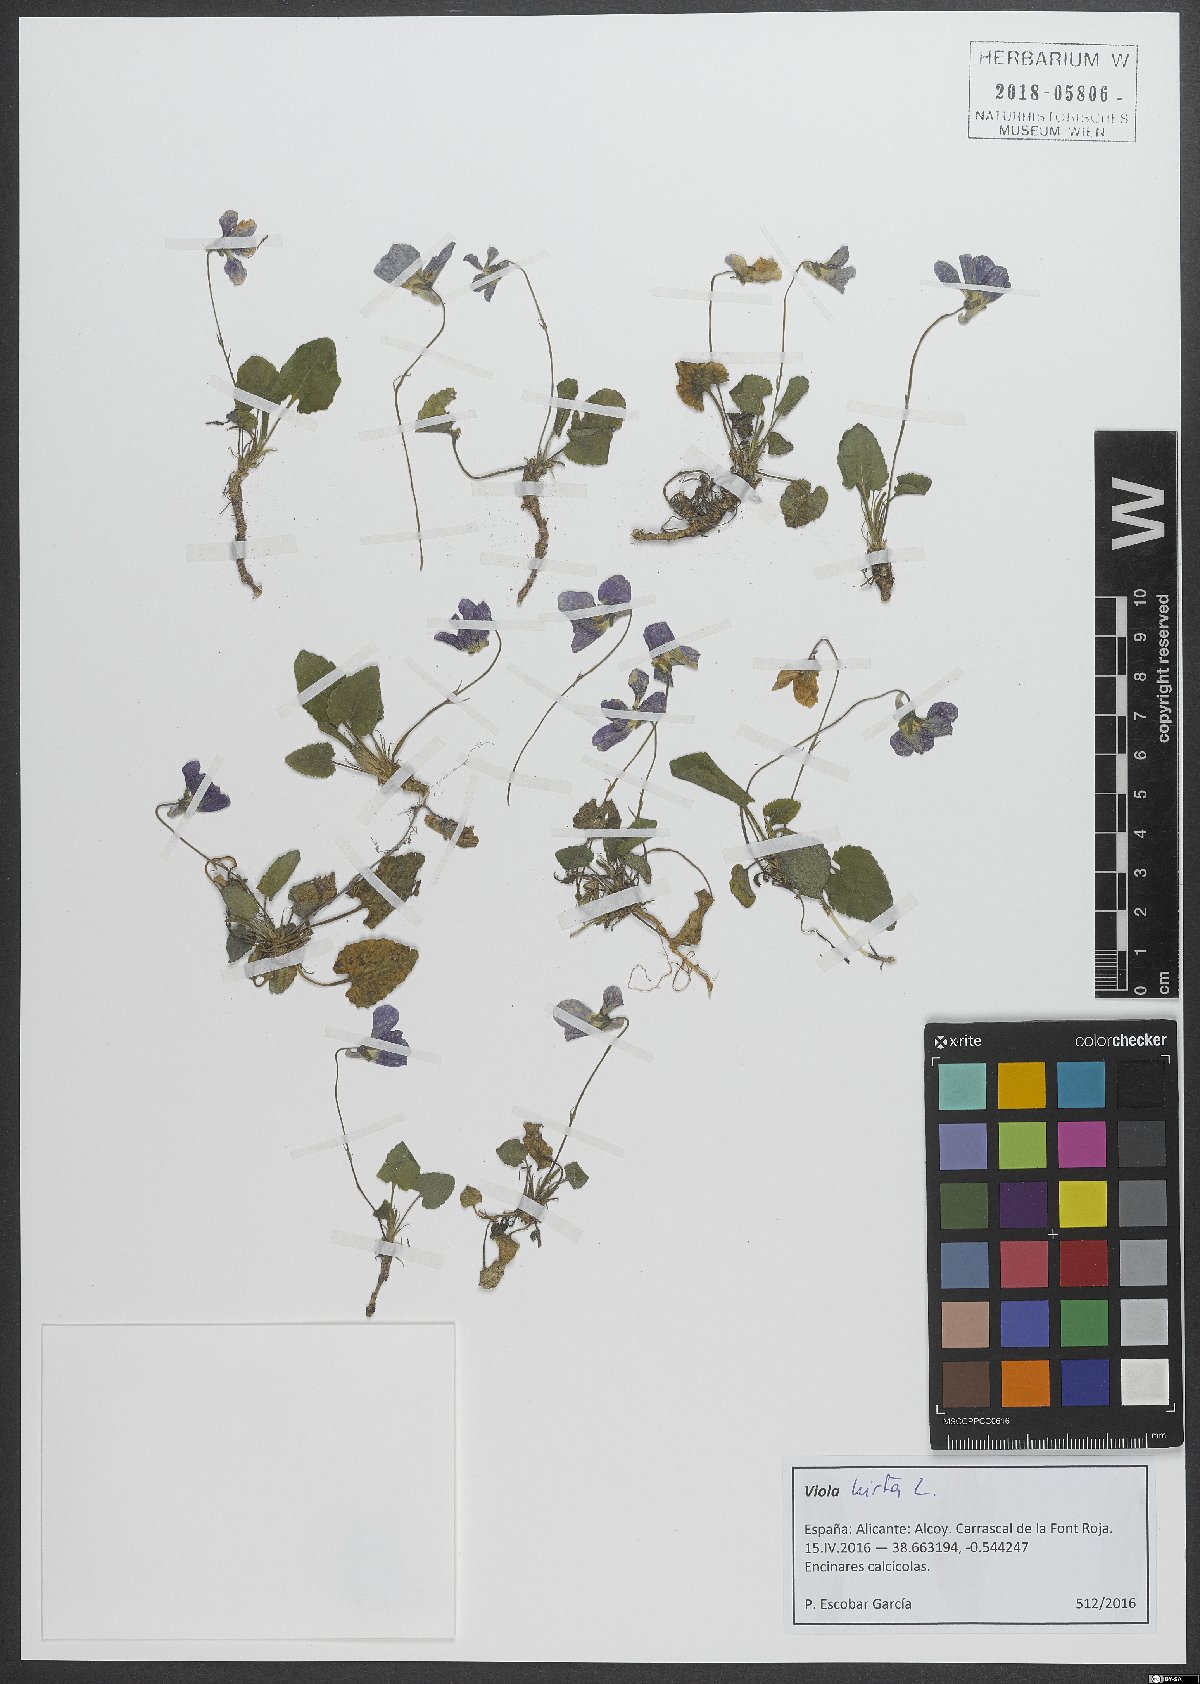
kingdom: Plantae
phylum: Tracheophyta
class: Magnoliopsida
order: Malpighiales
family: Violaceae
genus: Viola
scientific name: Viola hirta
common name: Hairy violet
